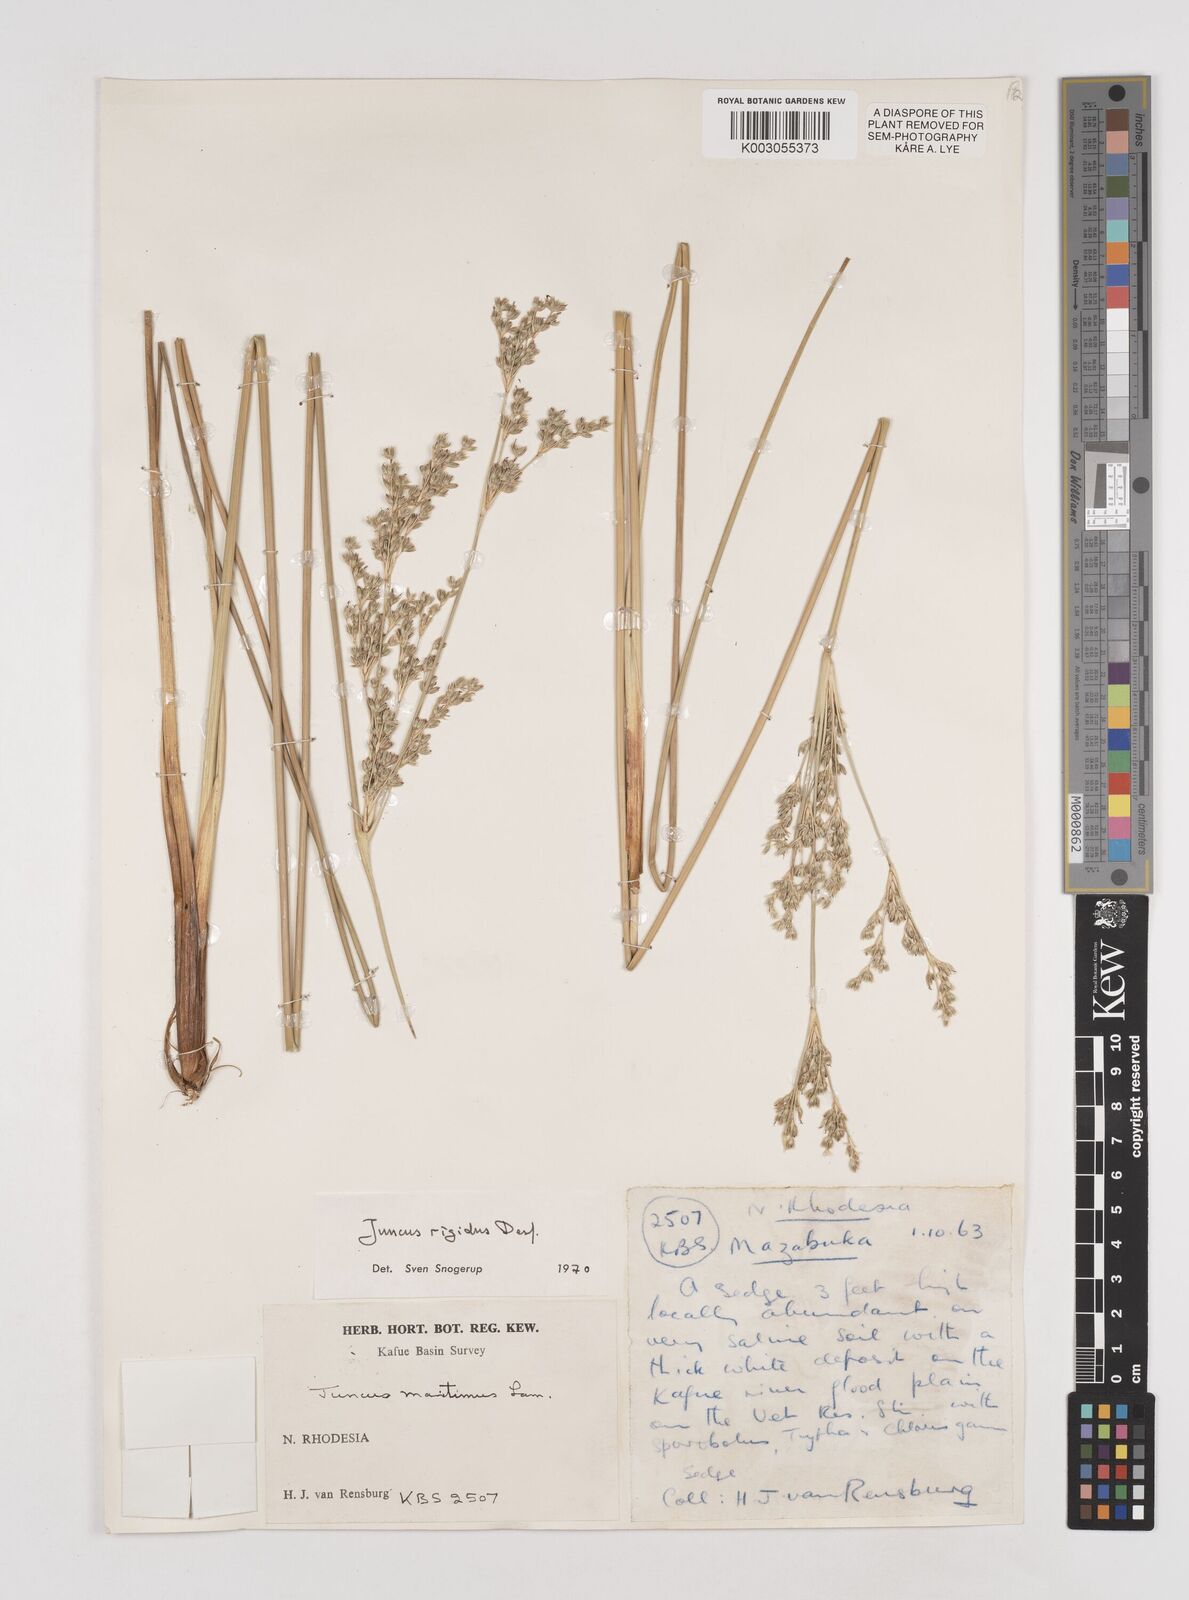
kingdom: Plantae
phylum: Tracheophyta
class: Liliopsida
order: Poales
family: Juncaceae
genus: Juncus
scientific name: Juncus rigidus
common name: Hard sea rush
